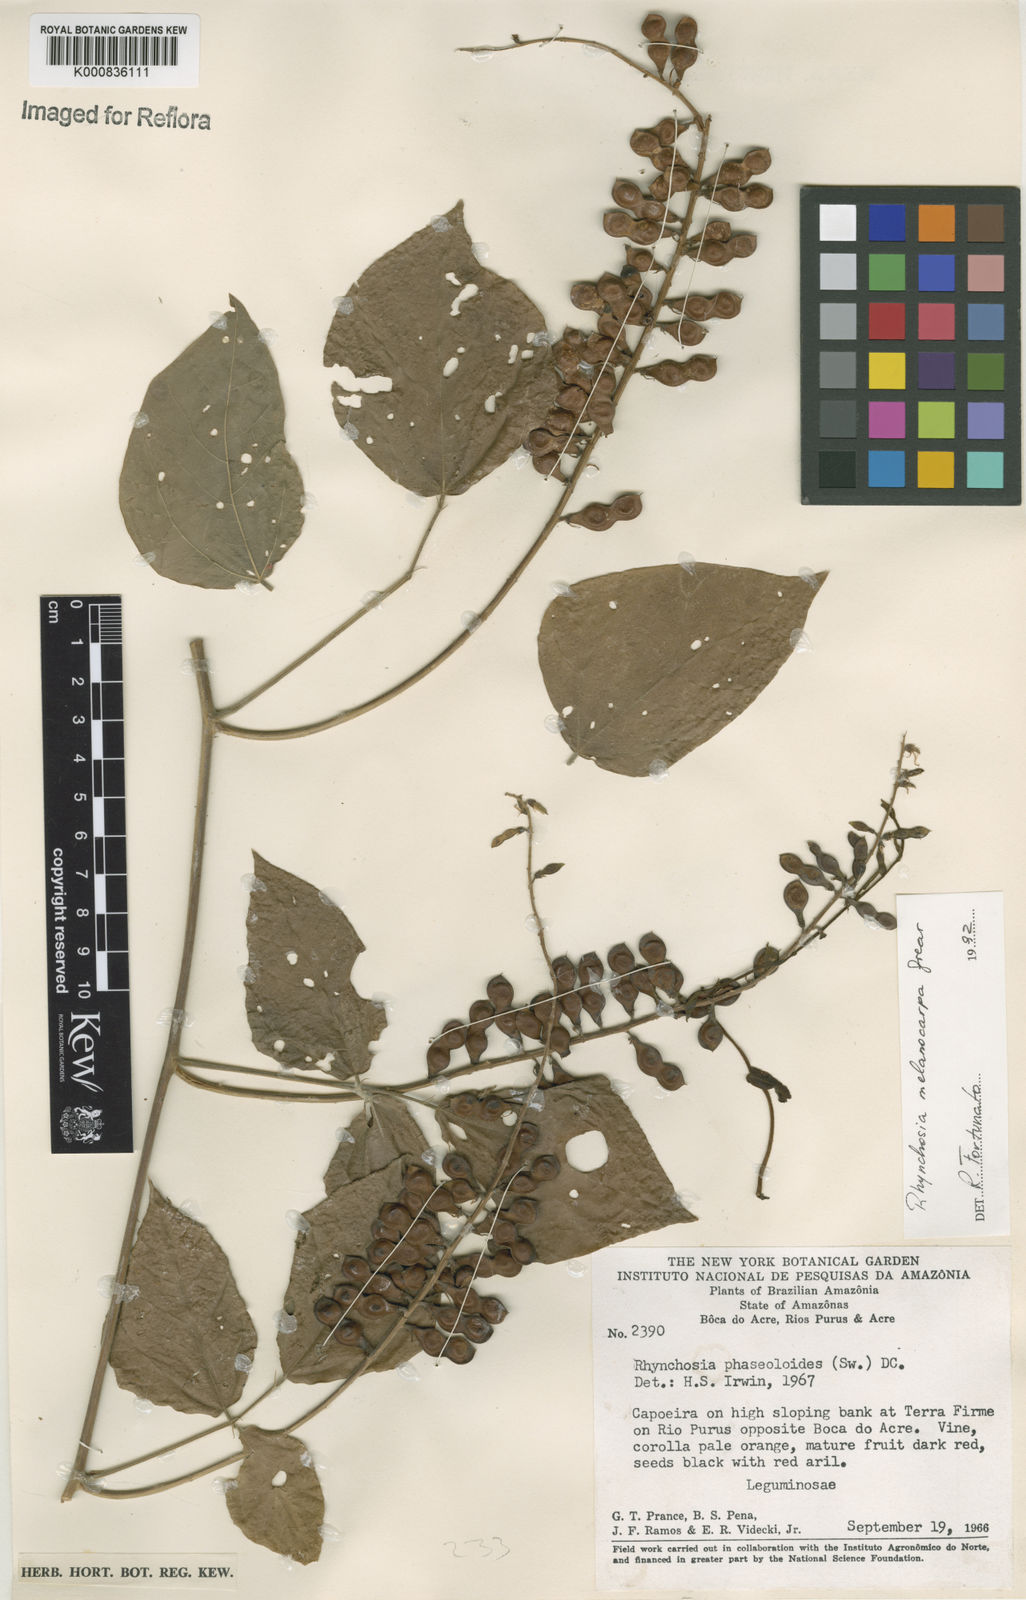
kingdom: Plantae
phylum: Tracheophyta
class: Magnoliopsida
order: Fabales
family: Fabaceae
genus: Rhynchosia
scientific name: Rhynchosia melanocarpa
